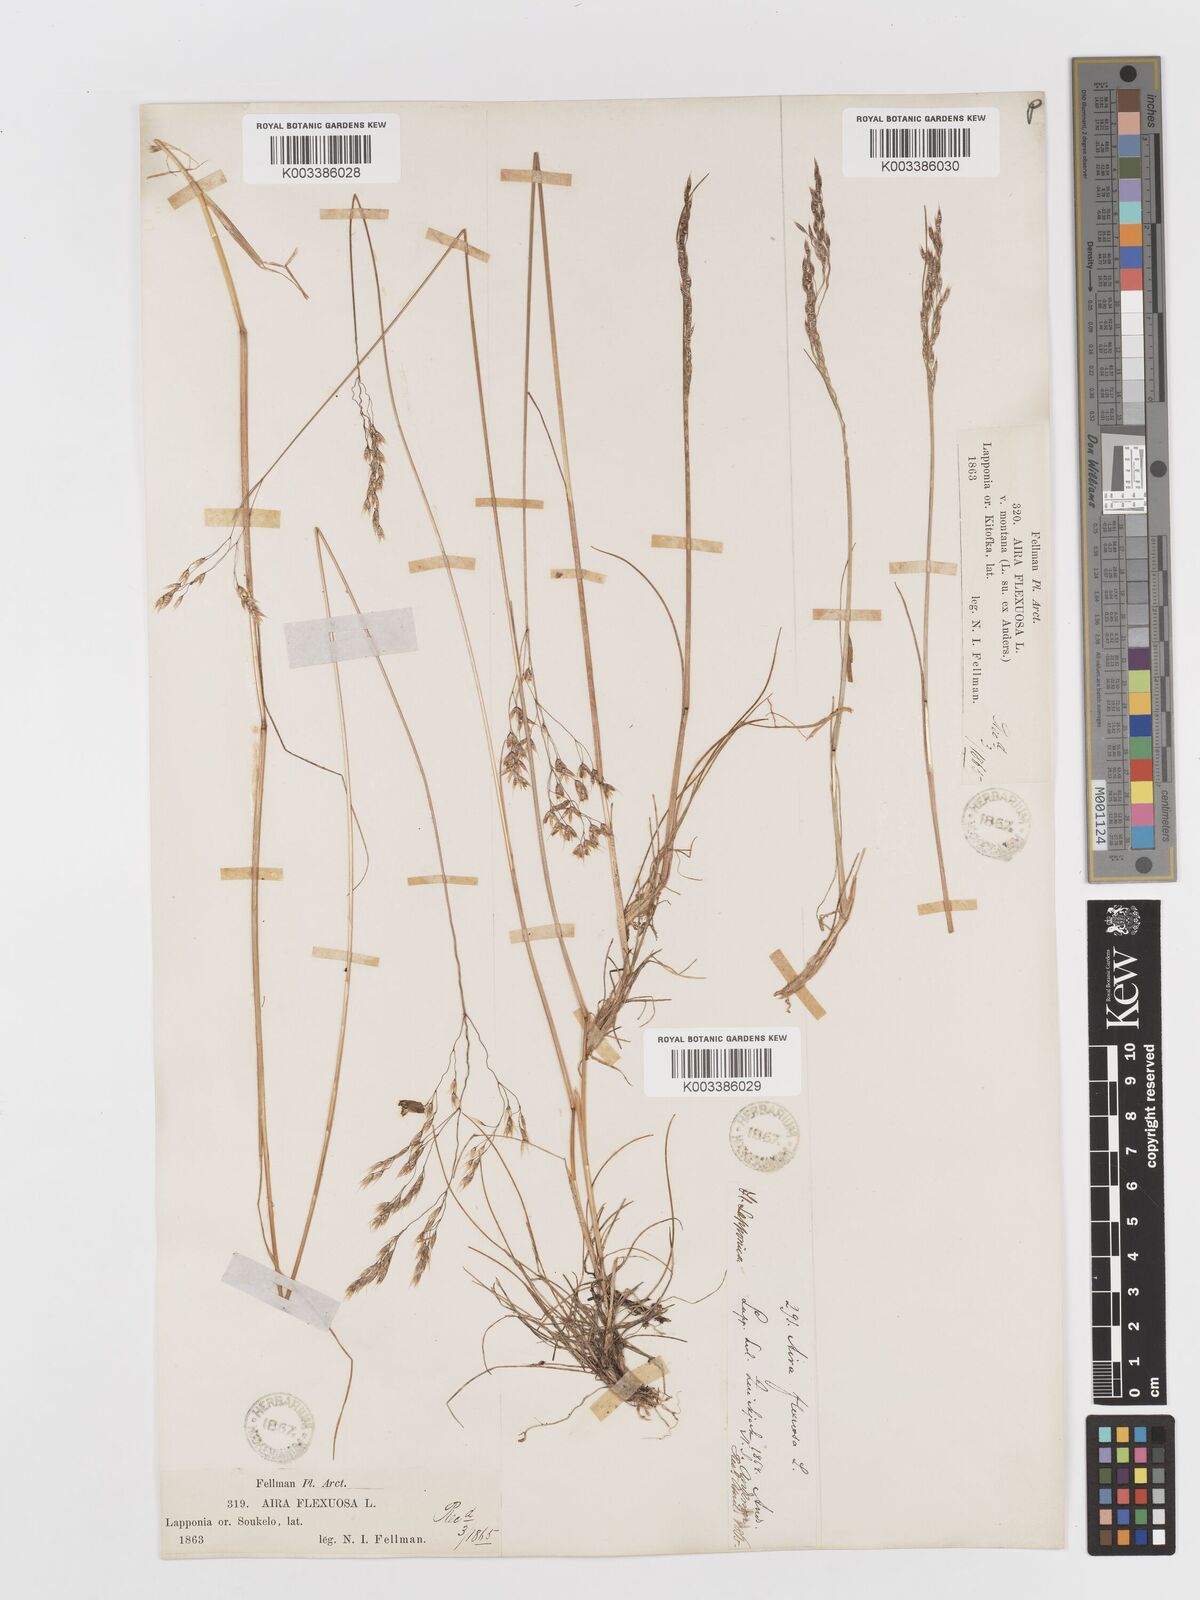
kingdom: Plantae
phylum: Tracheophyta
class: Liliopsida
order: Poales
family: Poaceae
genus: Avenella
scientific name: Avenella flexuosa
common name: Wavy hairgrass
